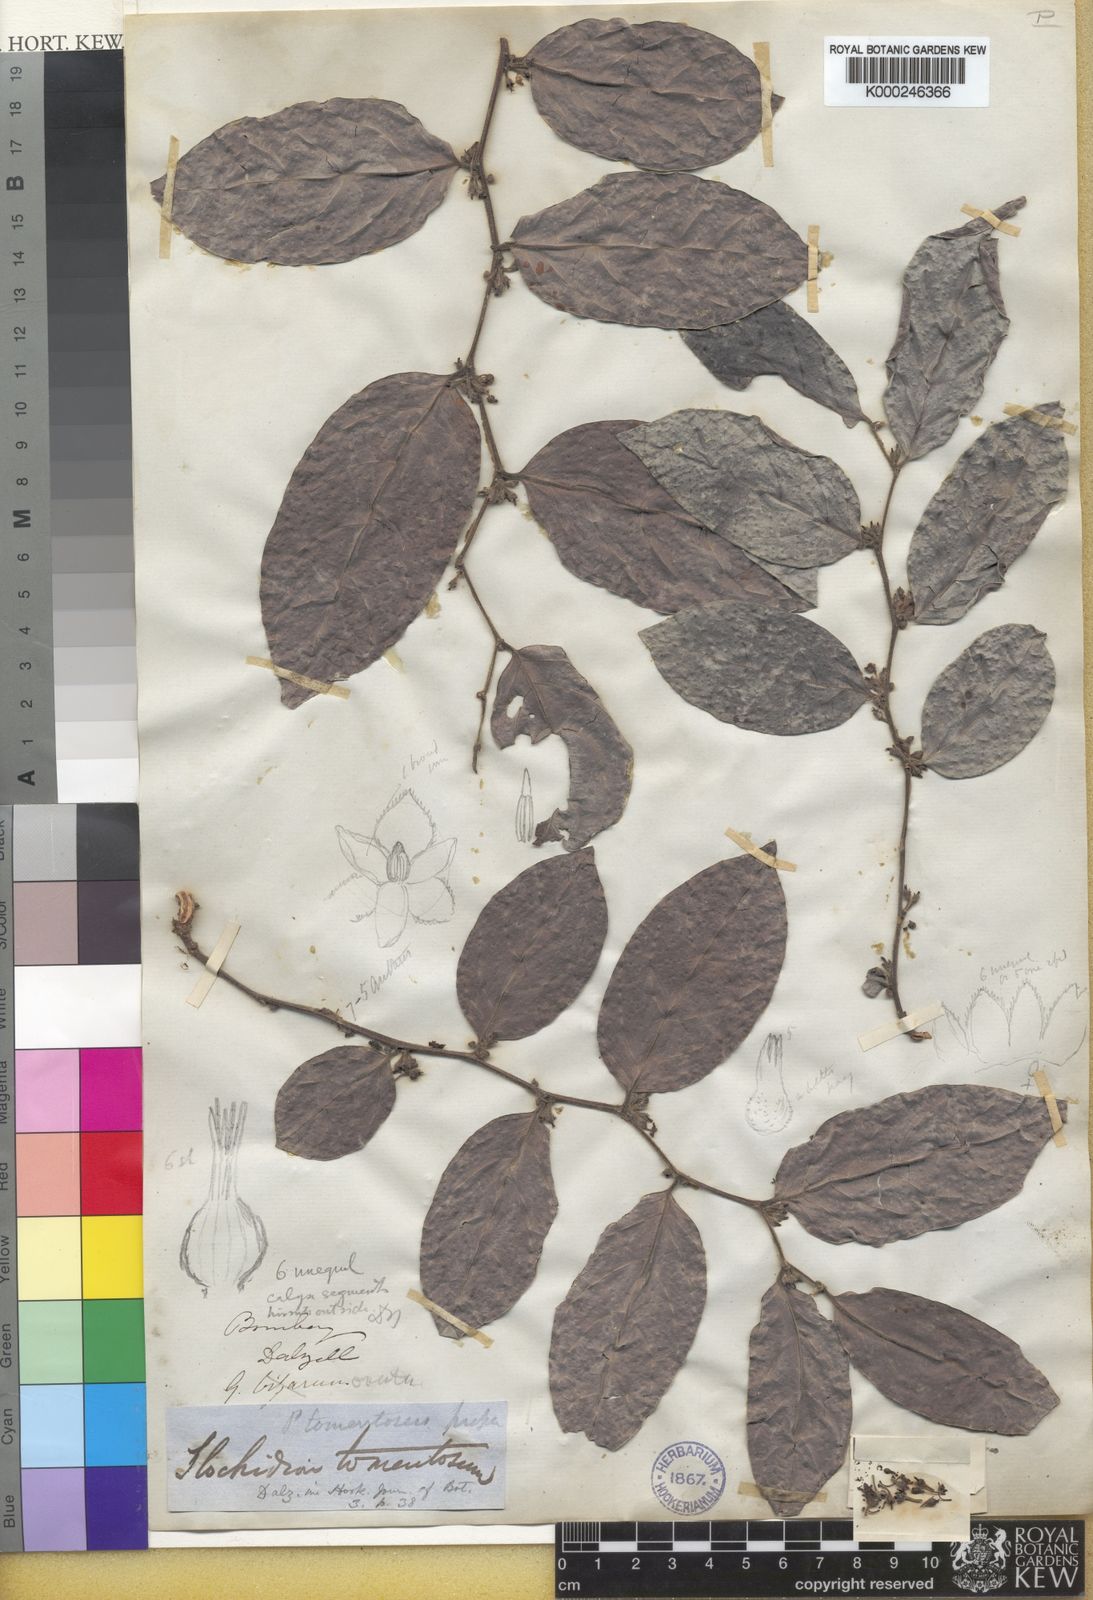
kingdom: Plantae
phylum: Tracheophyta
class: Magnoliopsida
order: Malpighiales
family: Phyllanthaceae
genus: Glochidion
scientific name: Glochidion zeylanicum
